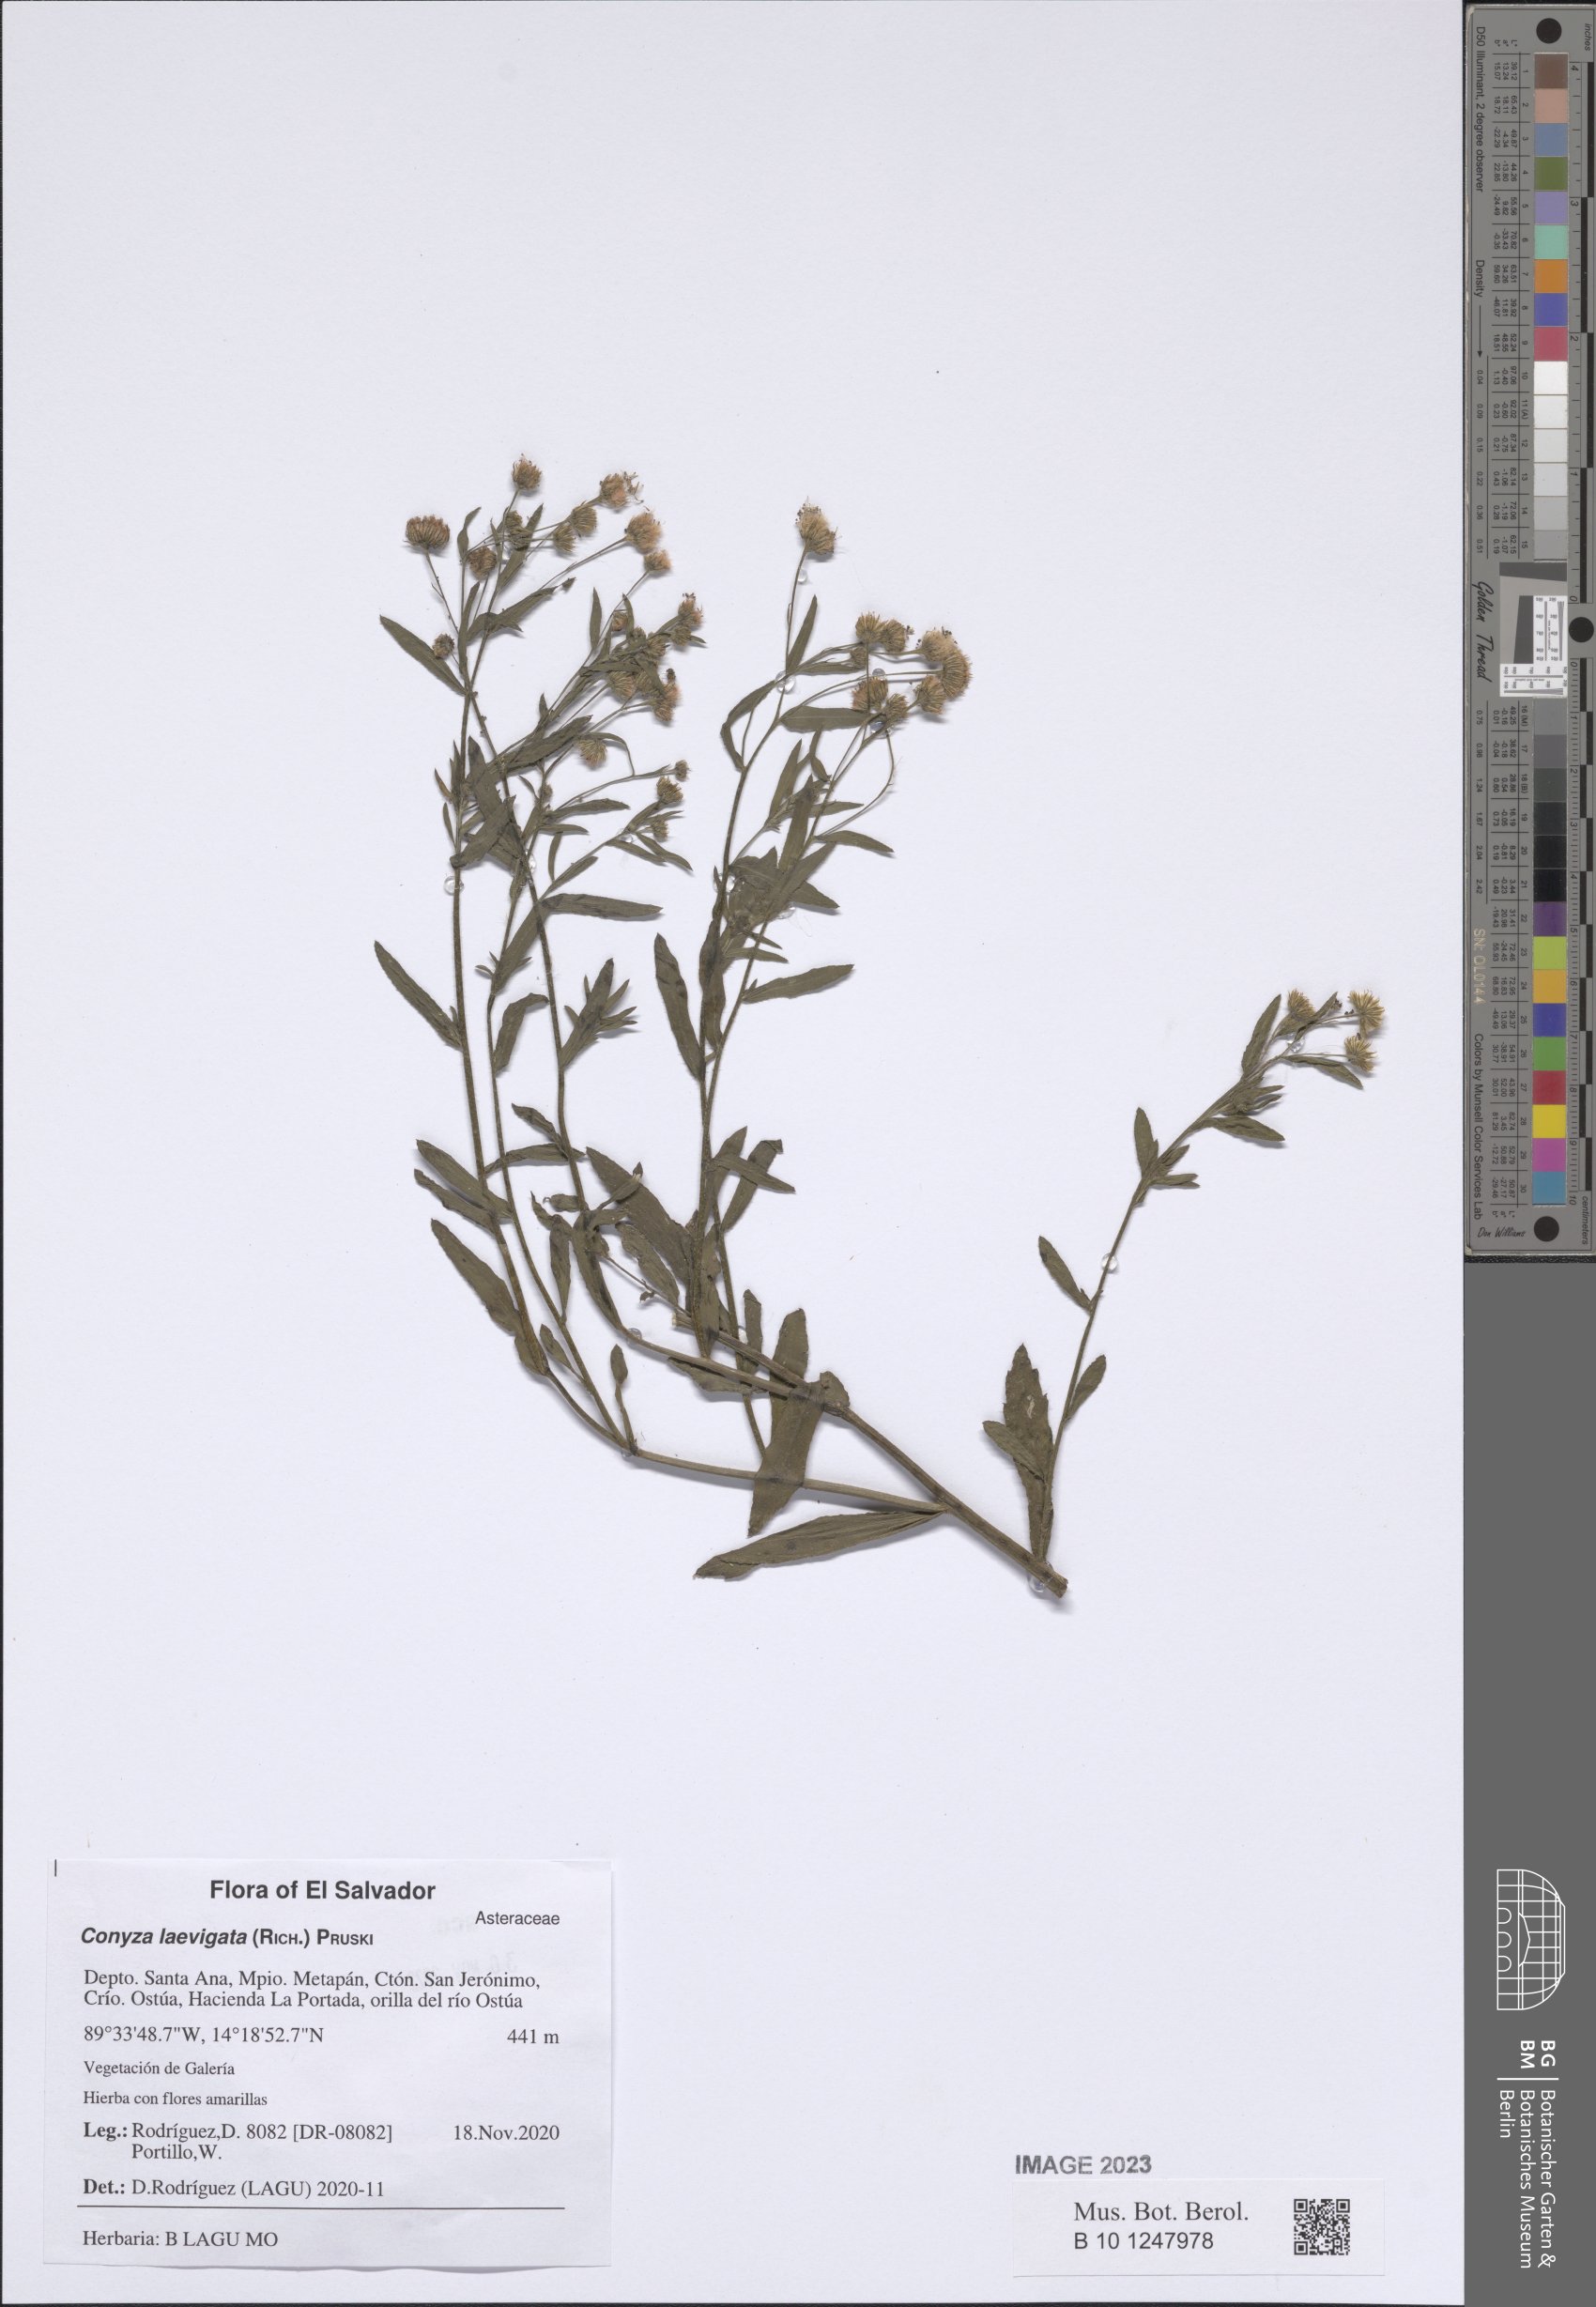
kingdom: Plantae
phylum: Tracheophyta
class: Magnoliopsida
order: Asterales
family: Asteraceae
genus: Erigeron
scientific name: Erigeron laevigatus
